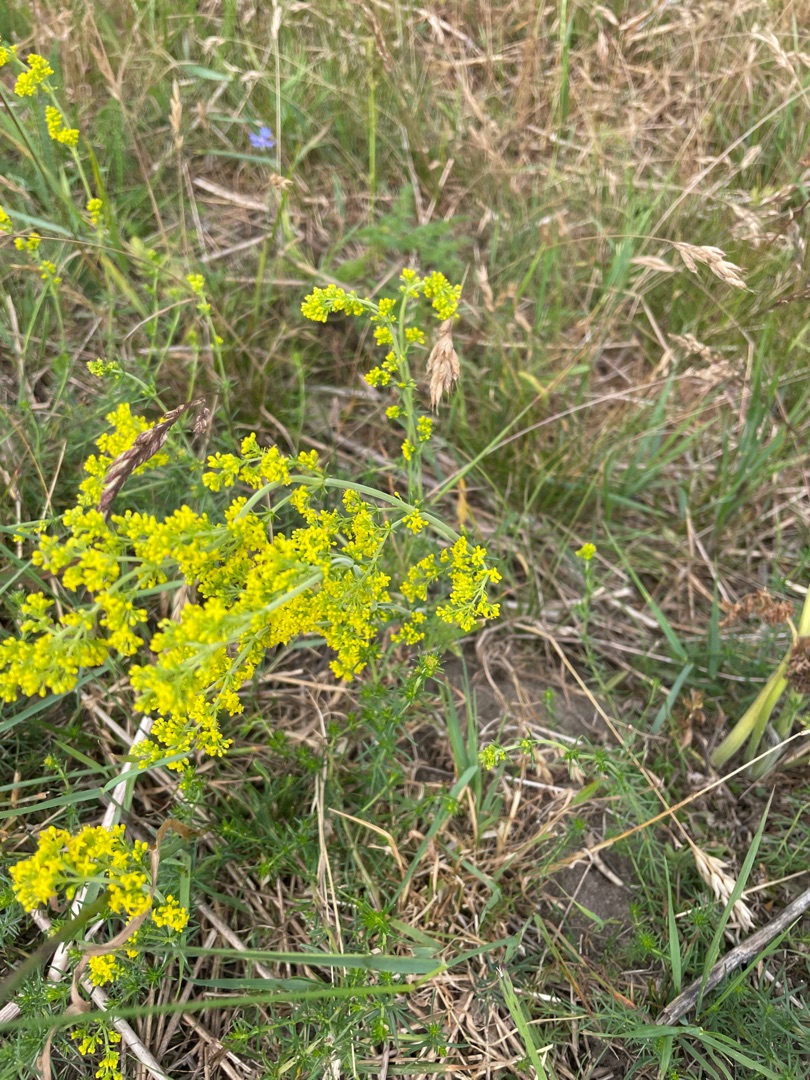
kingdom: Plantae
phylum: Tracheophyta
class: Magnoliopsida
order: Gentianales
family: Rubiaceae
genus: Galium
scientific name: Galium verum
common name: Gul snerre
